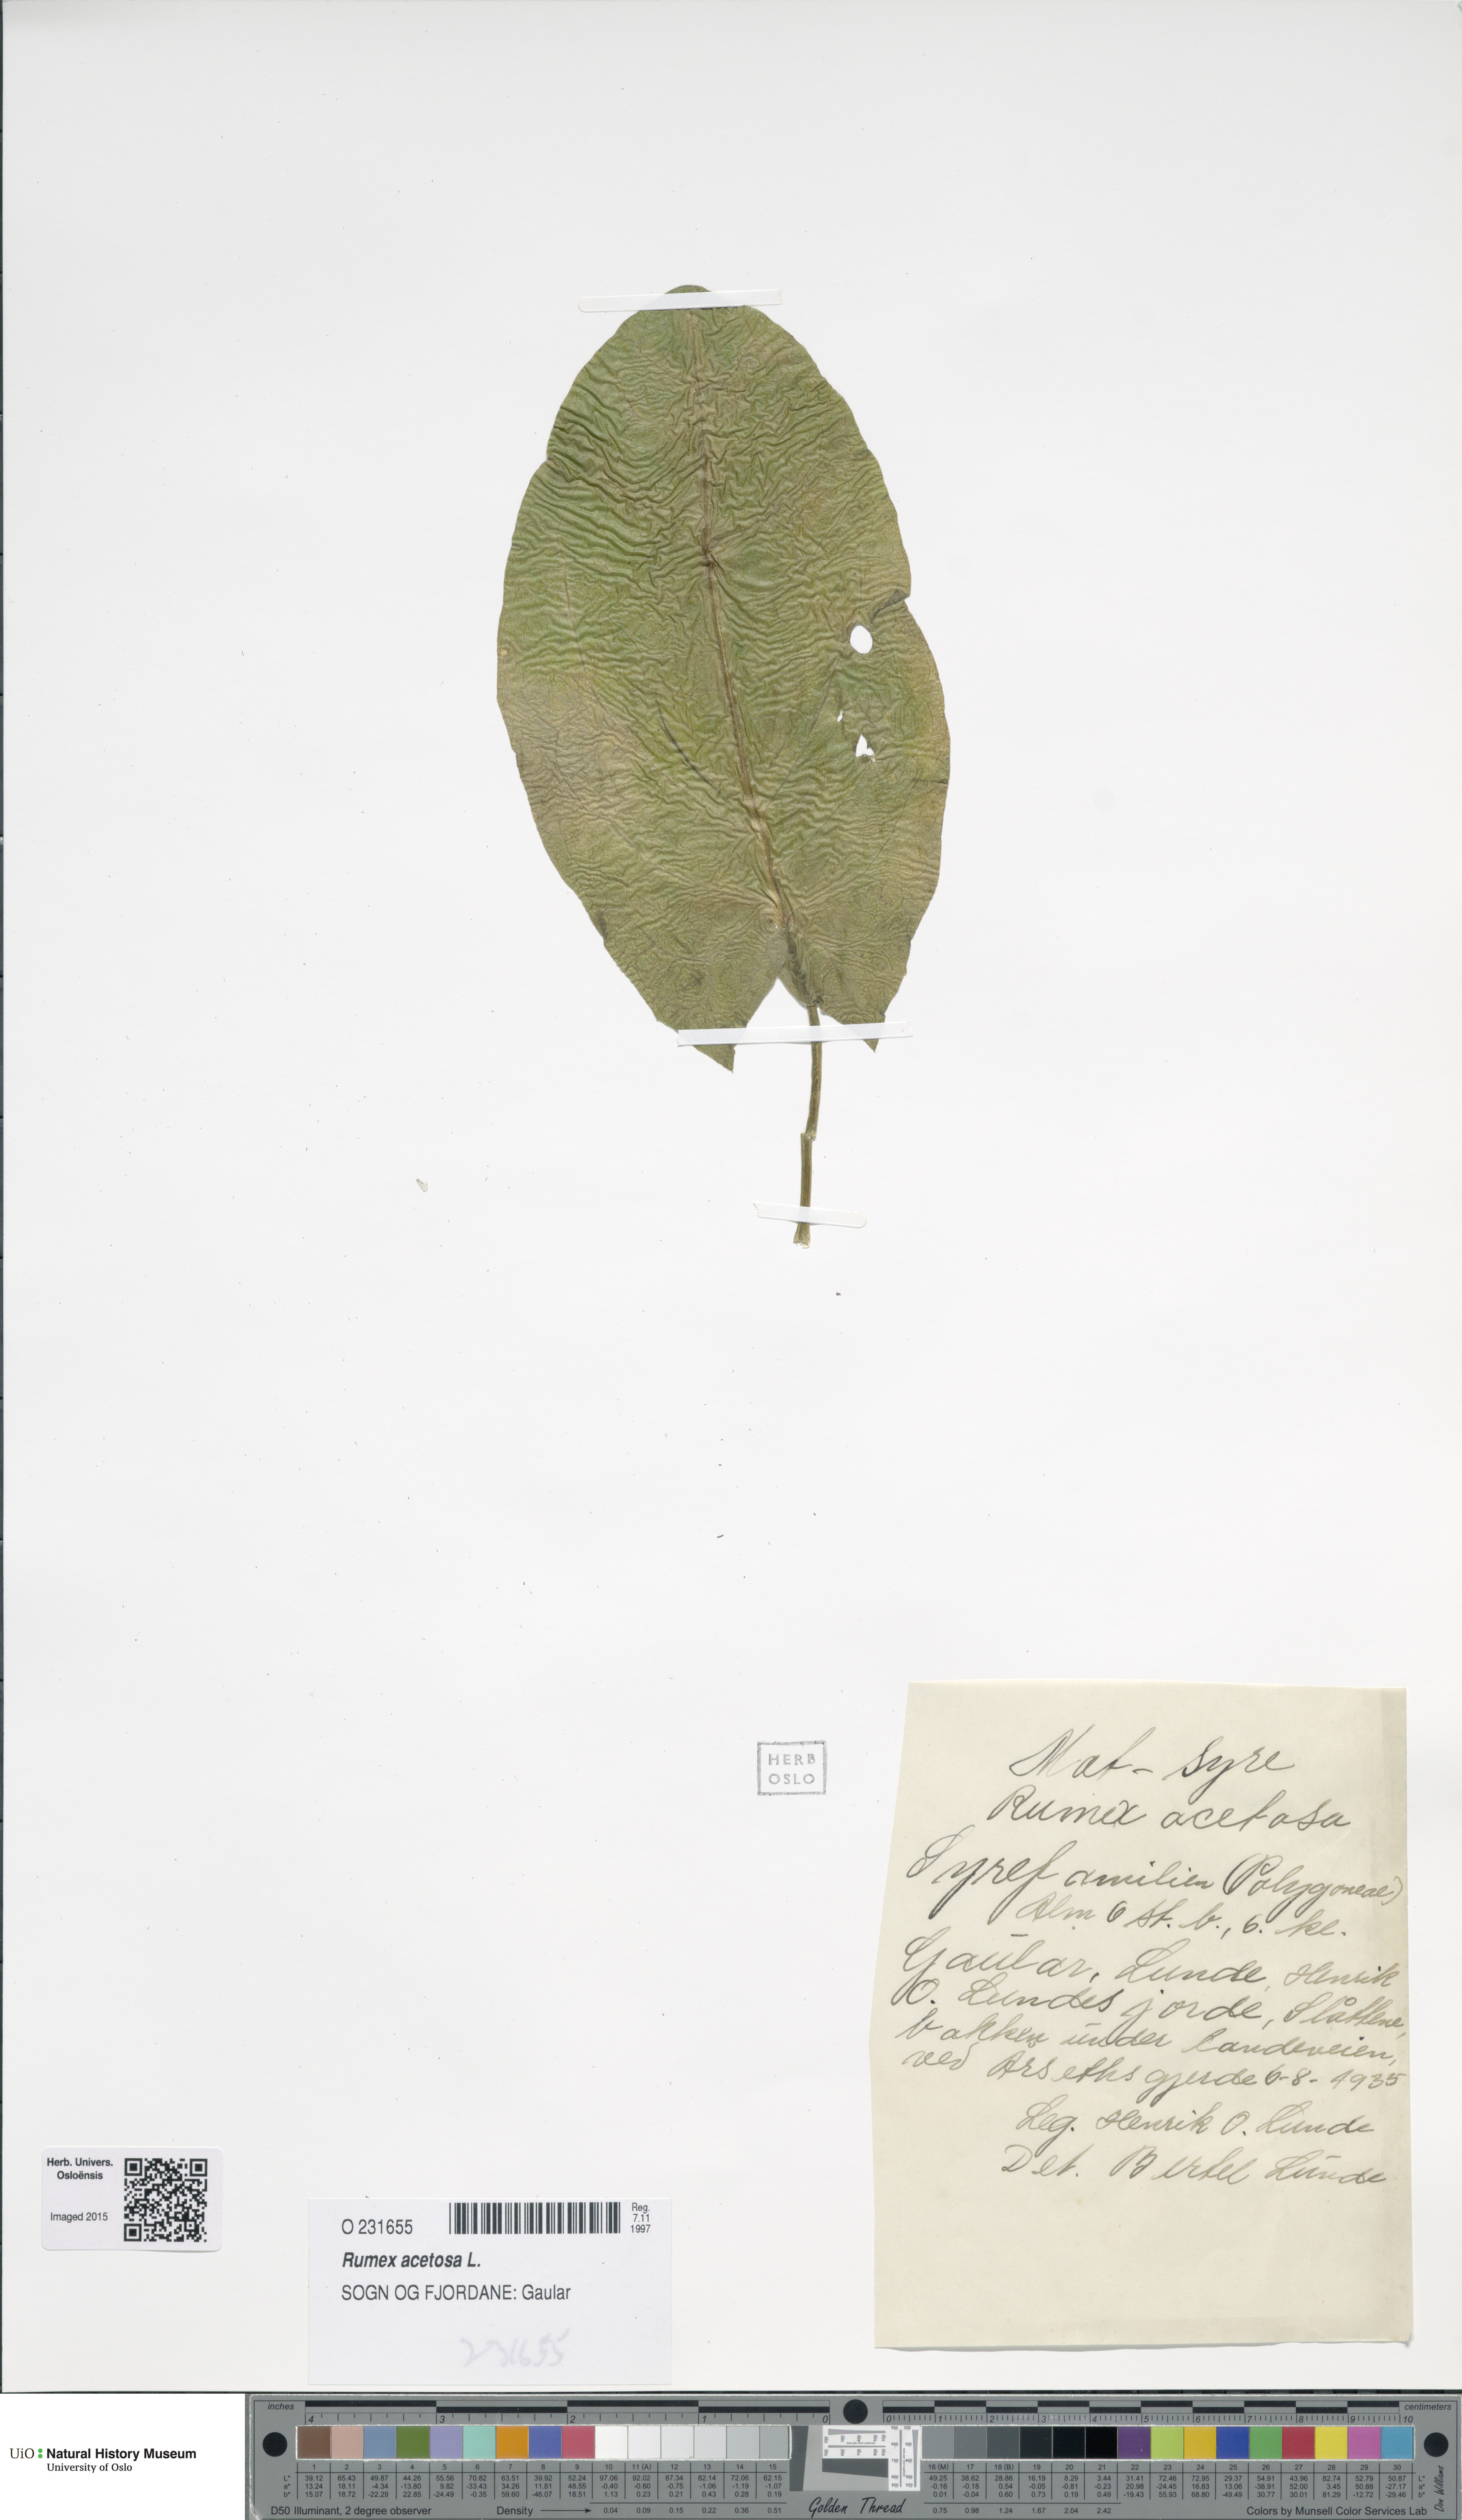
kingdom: Plantae
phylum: Tracheophyta
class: Magnoliopsida
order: Caryophyllales
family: Polygonaceae
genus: Rumex
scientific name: Rumex acetosa
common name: Garden sorrel
